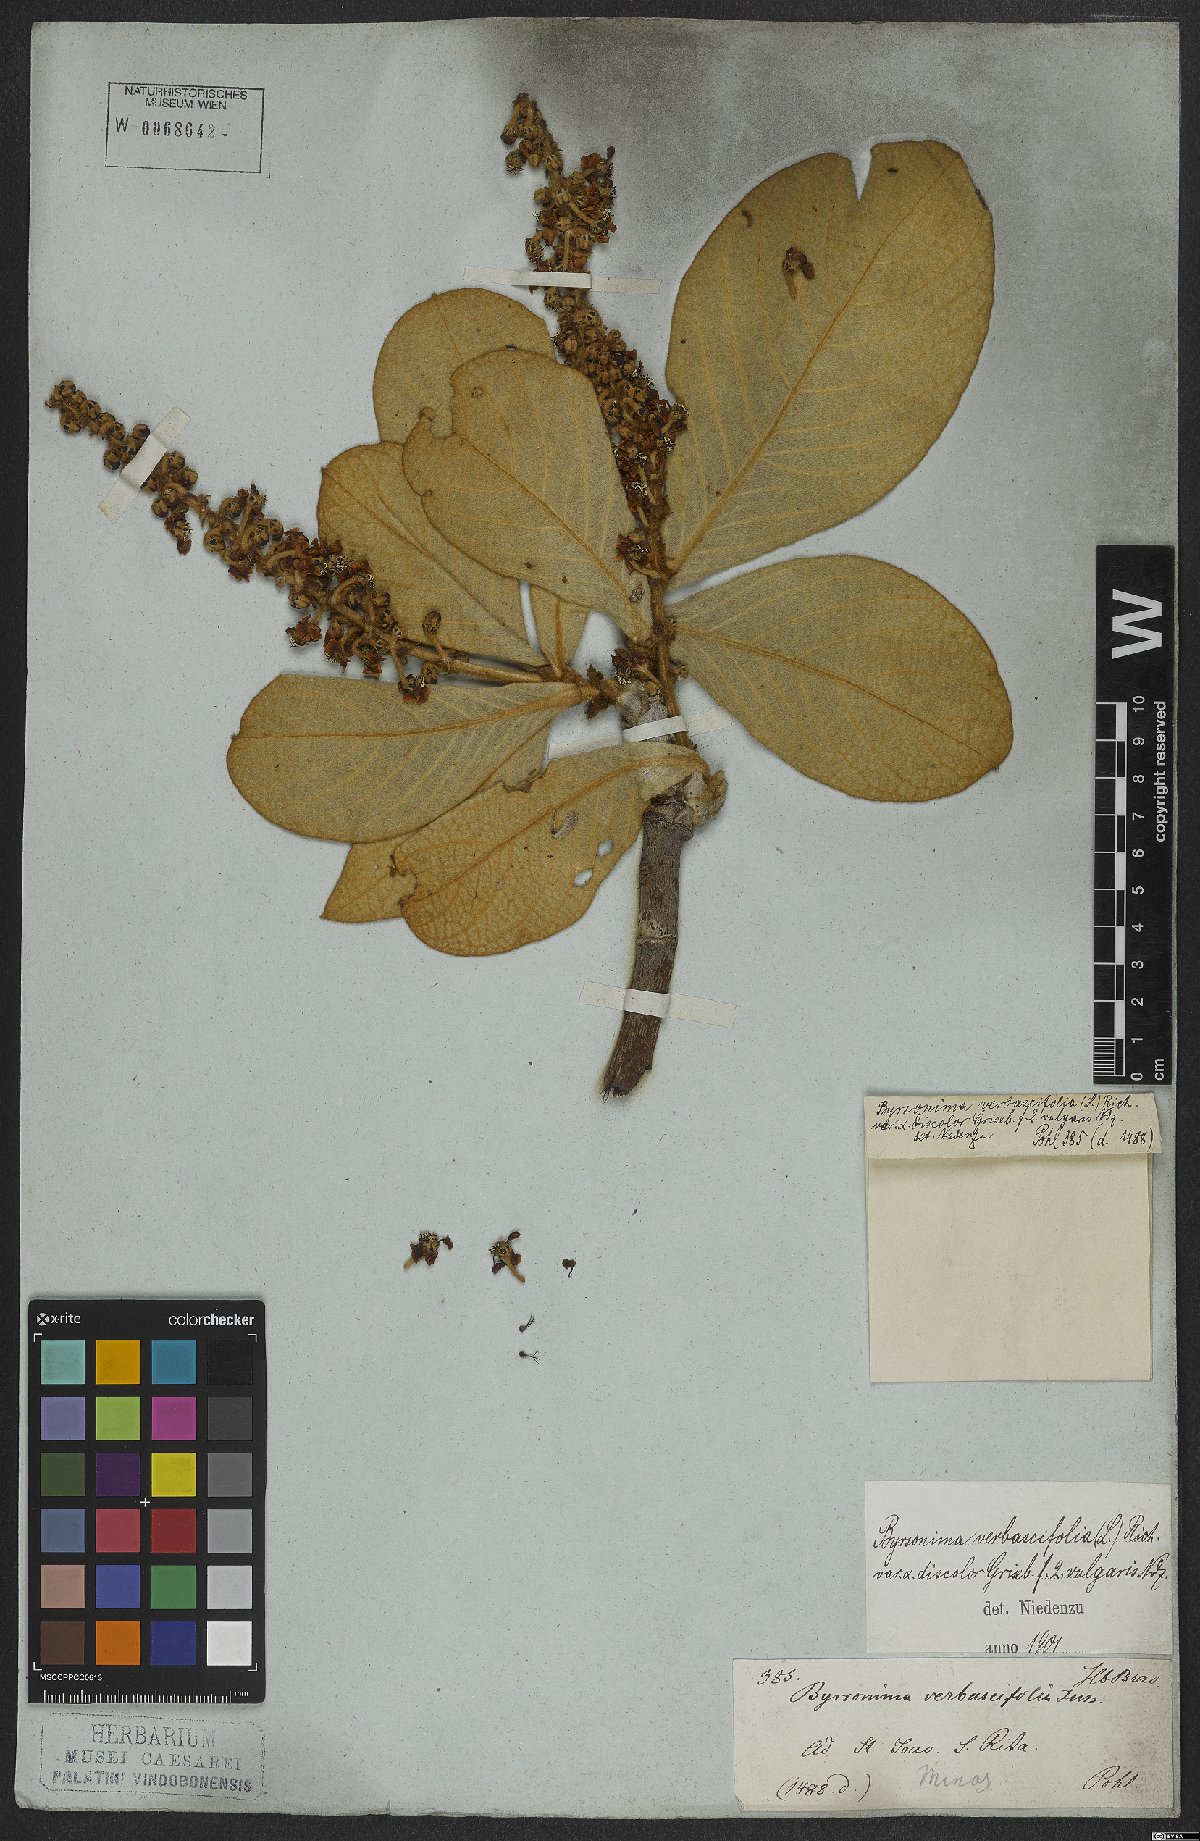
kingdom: Plantae
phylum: Tracheophyta
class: Magnoliopsida
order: Malpighiales
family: Malpighiaceae
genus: Byrsonima
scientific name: Byrsonima verbascifolia
